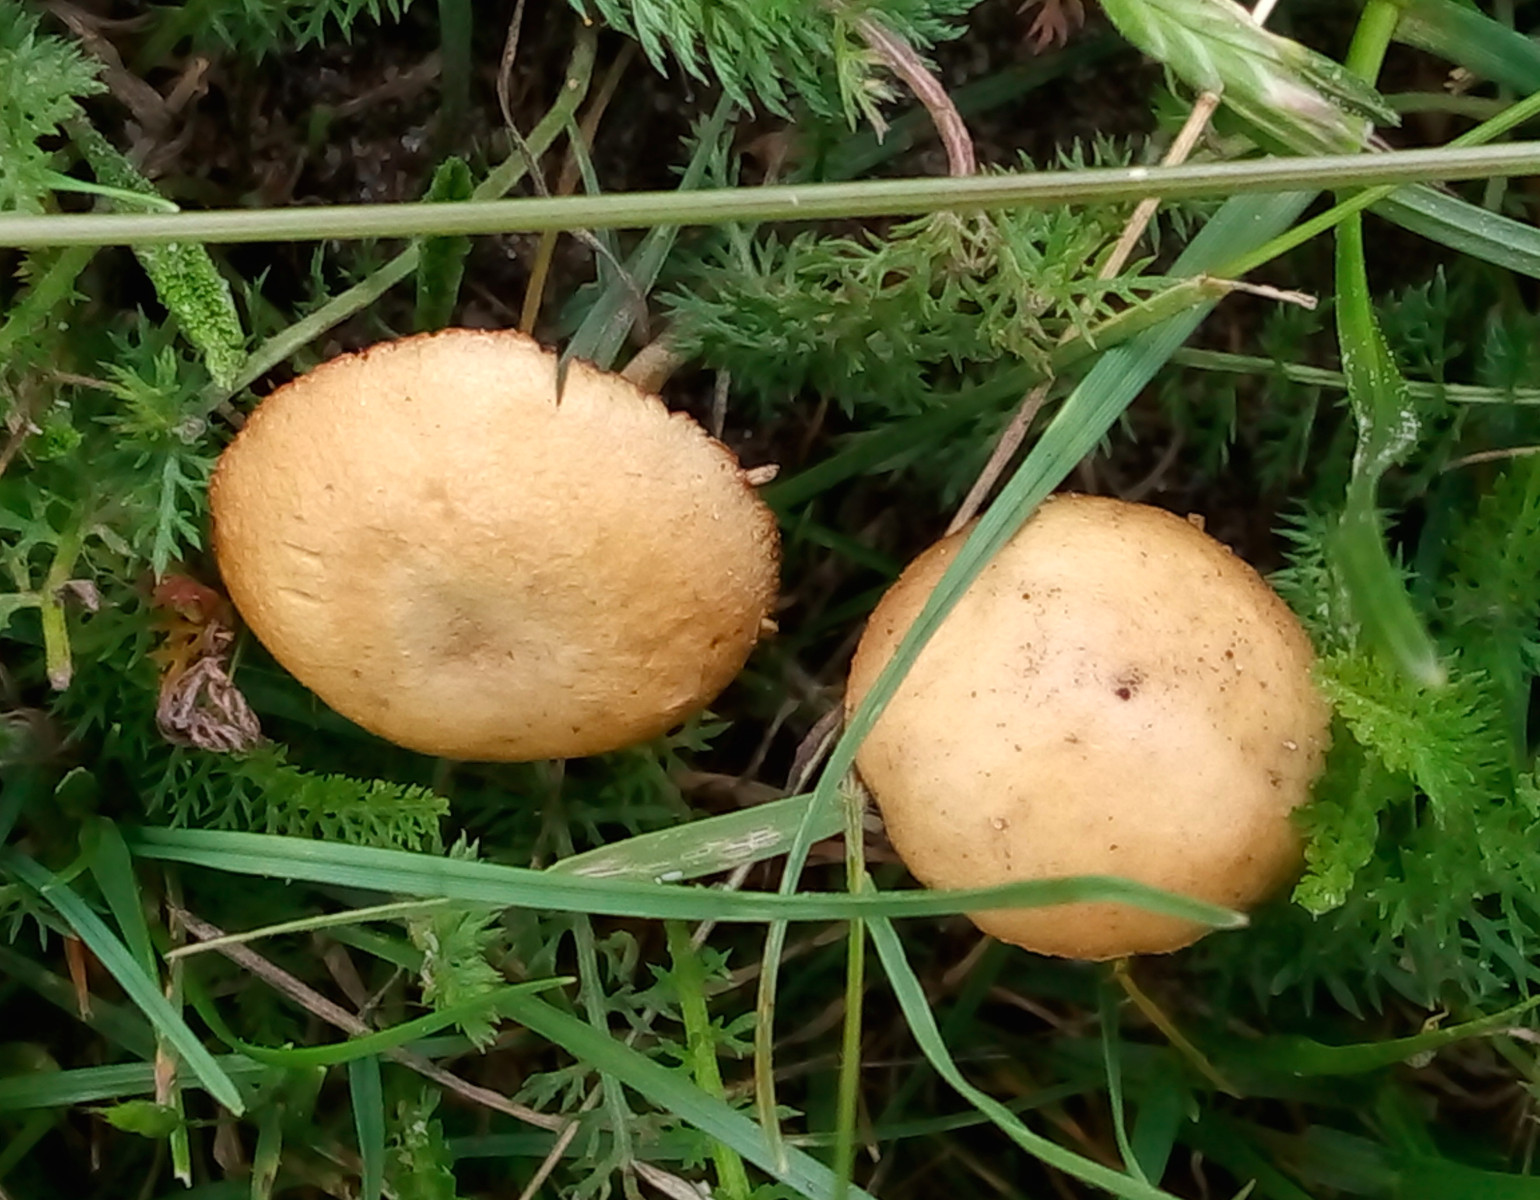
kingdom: Fungi
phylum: Basidiomycota
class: Agaricomycetes
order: Agaricales
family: Strophariaceae
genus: Agrocybe
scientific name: Agrocybe pediades
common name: almindelig agerhat
